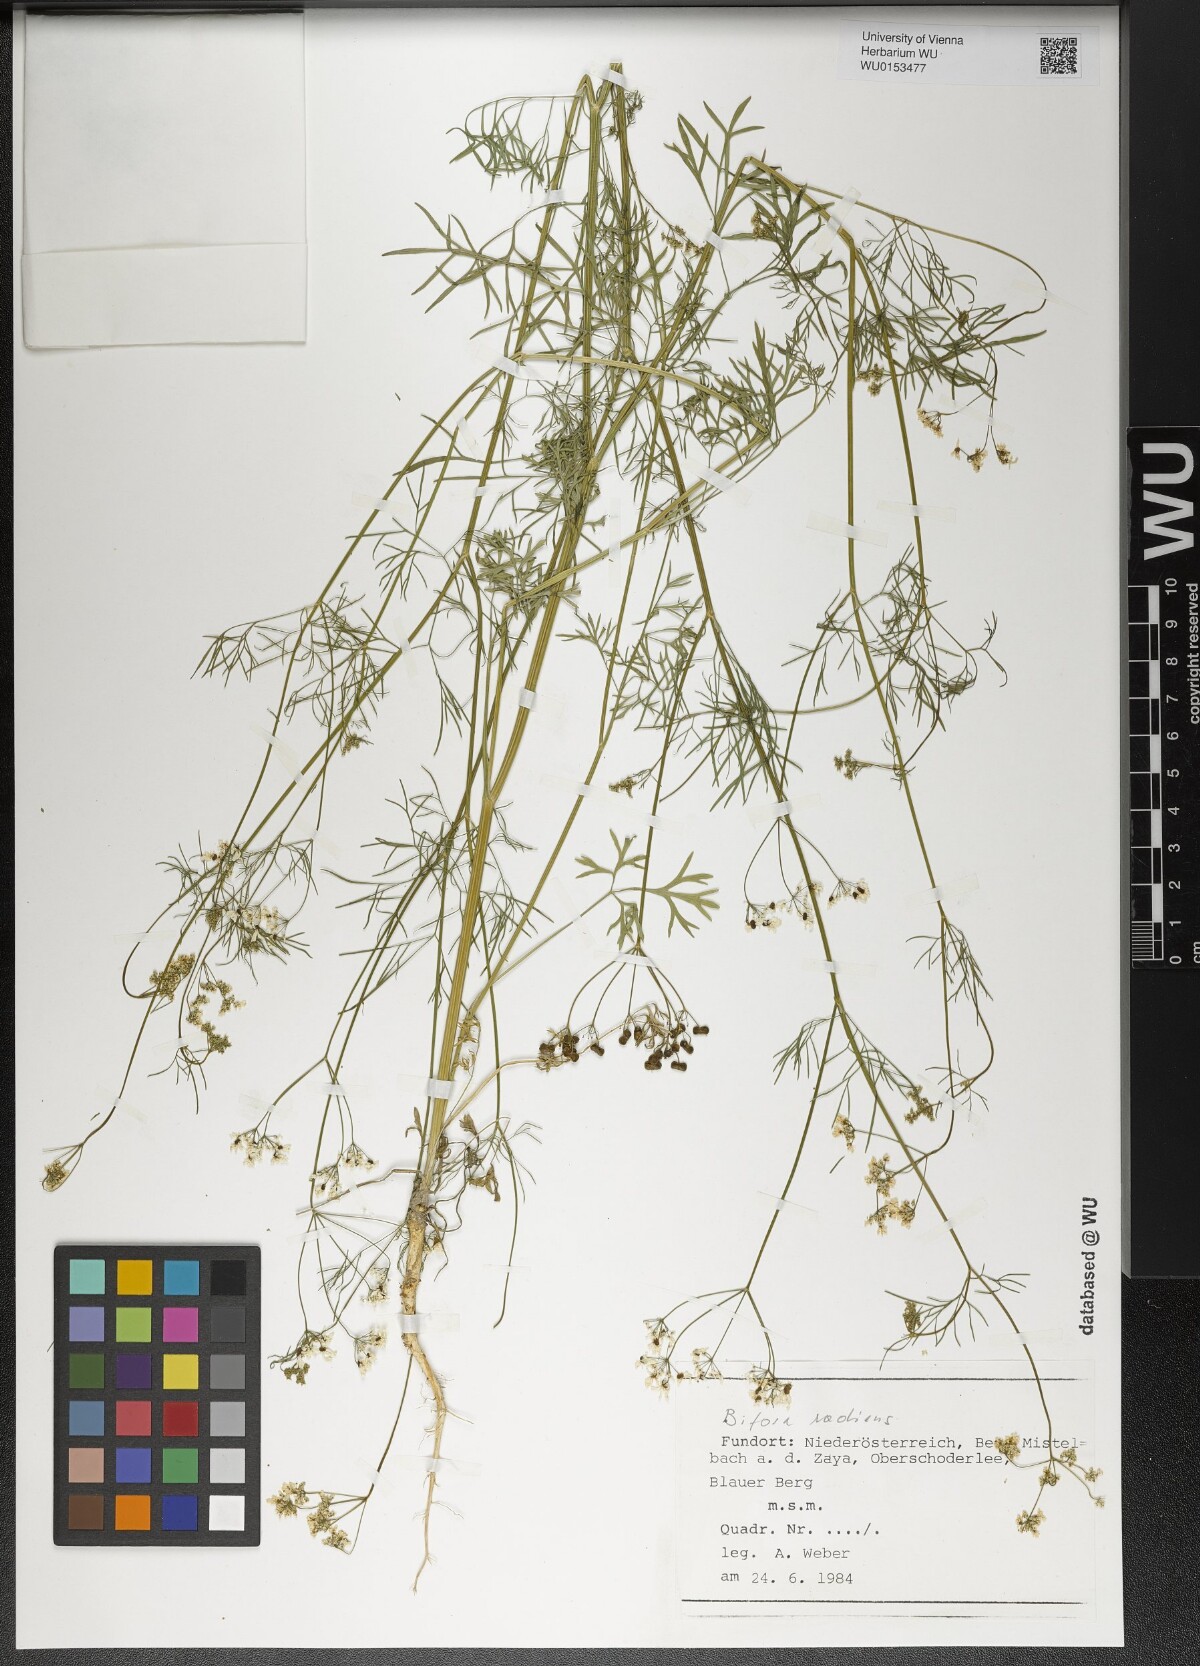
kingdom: Plantae
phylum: Tracheophyta
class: Magnoliopsida
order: Apiales
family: Apiaceae
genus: Bifora
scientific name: Bifora radians
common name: Wild bishop
